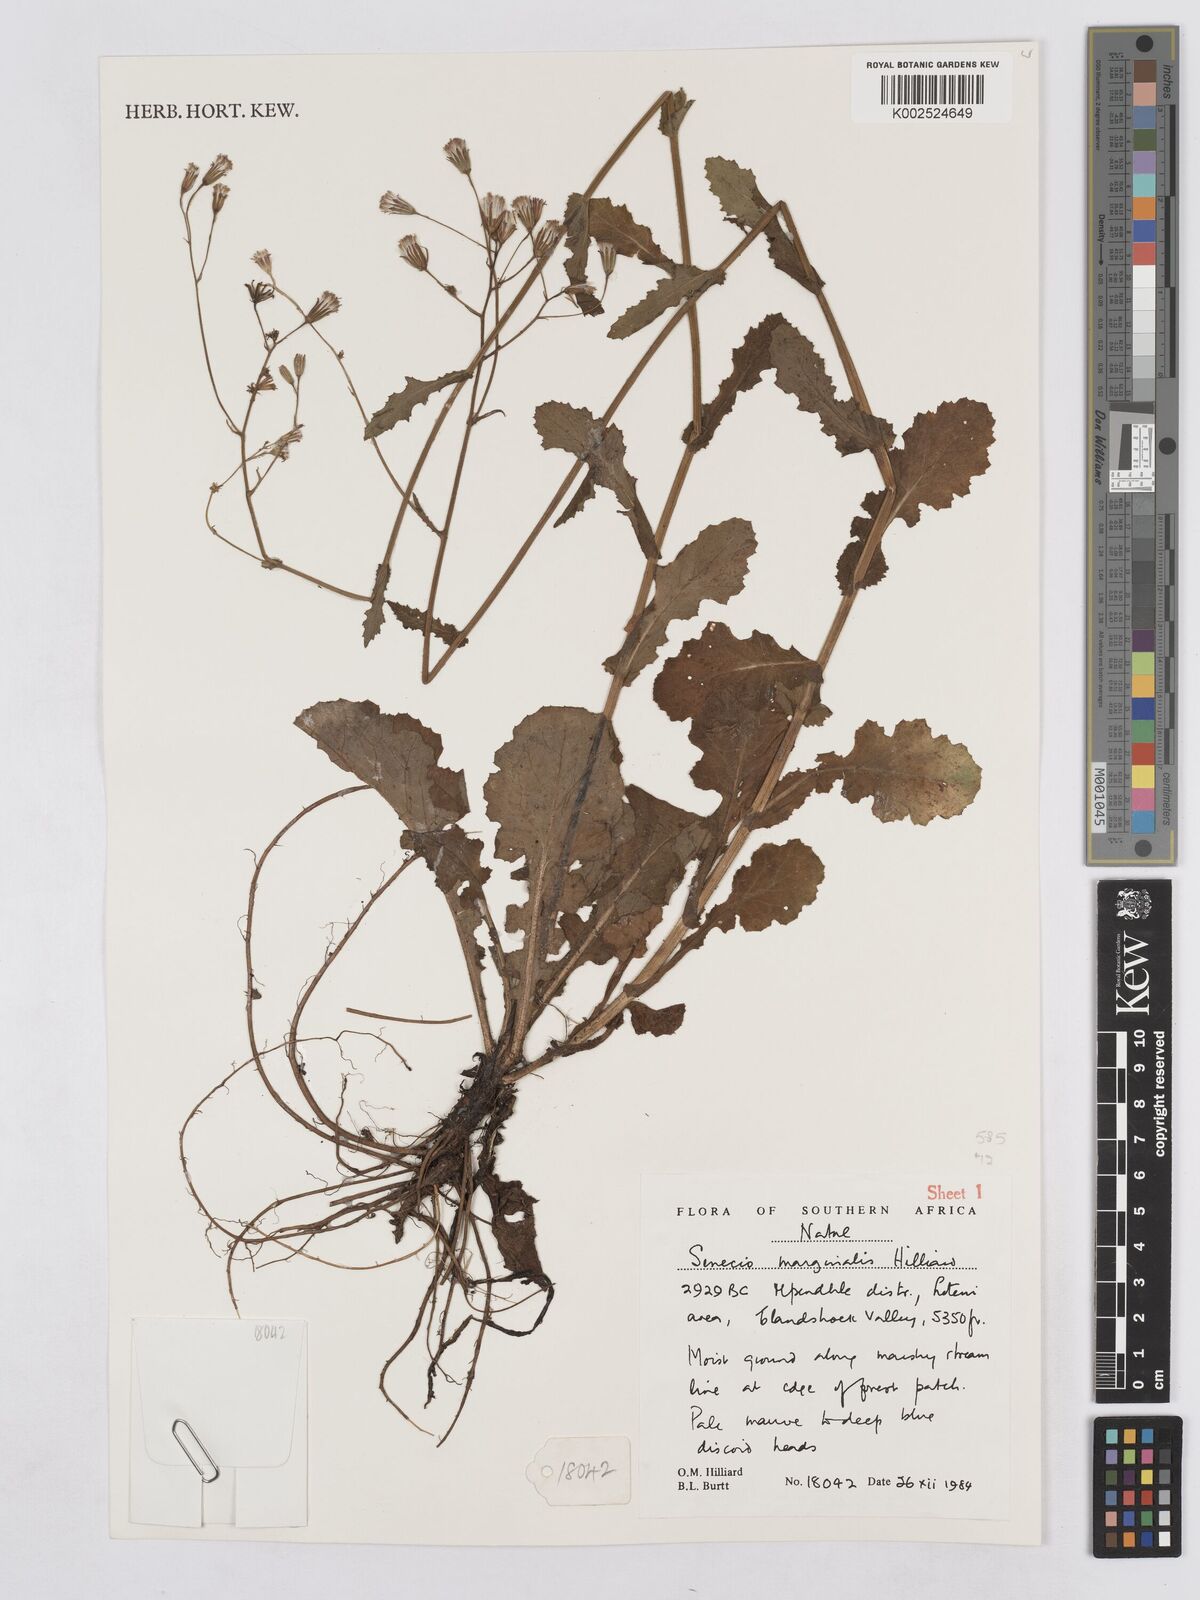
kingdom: Plantae
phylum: Tracheophyta
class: Magnoliopsida
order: Asterales
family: Asteraceae
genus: Senecio
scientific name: Senecio marginalis
